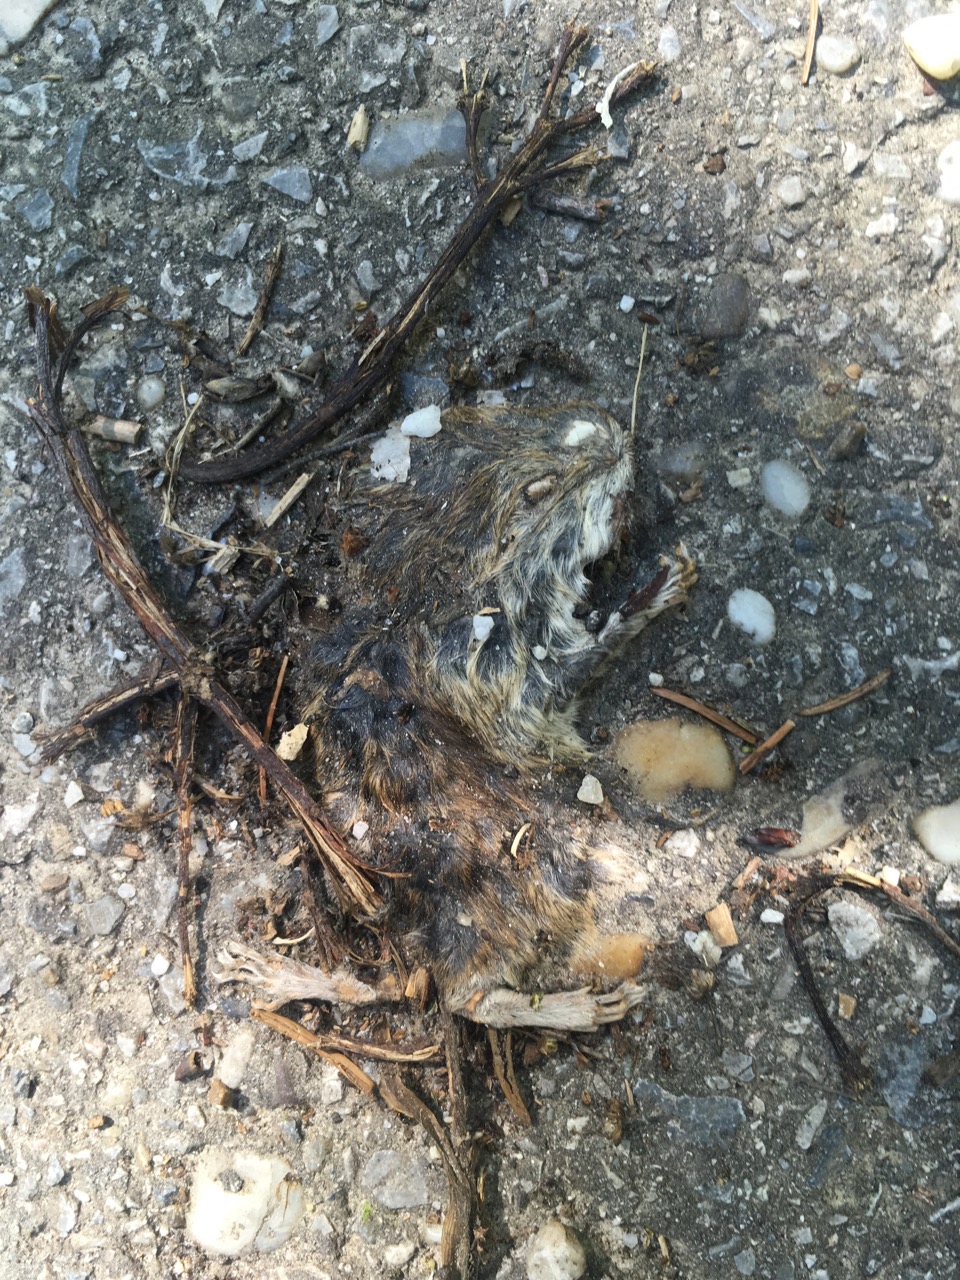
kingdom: Animalia
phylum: Chordata
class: Mammalia
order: Rodentia
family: Cricetidae
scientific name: Cricetidae
